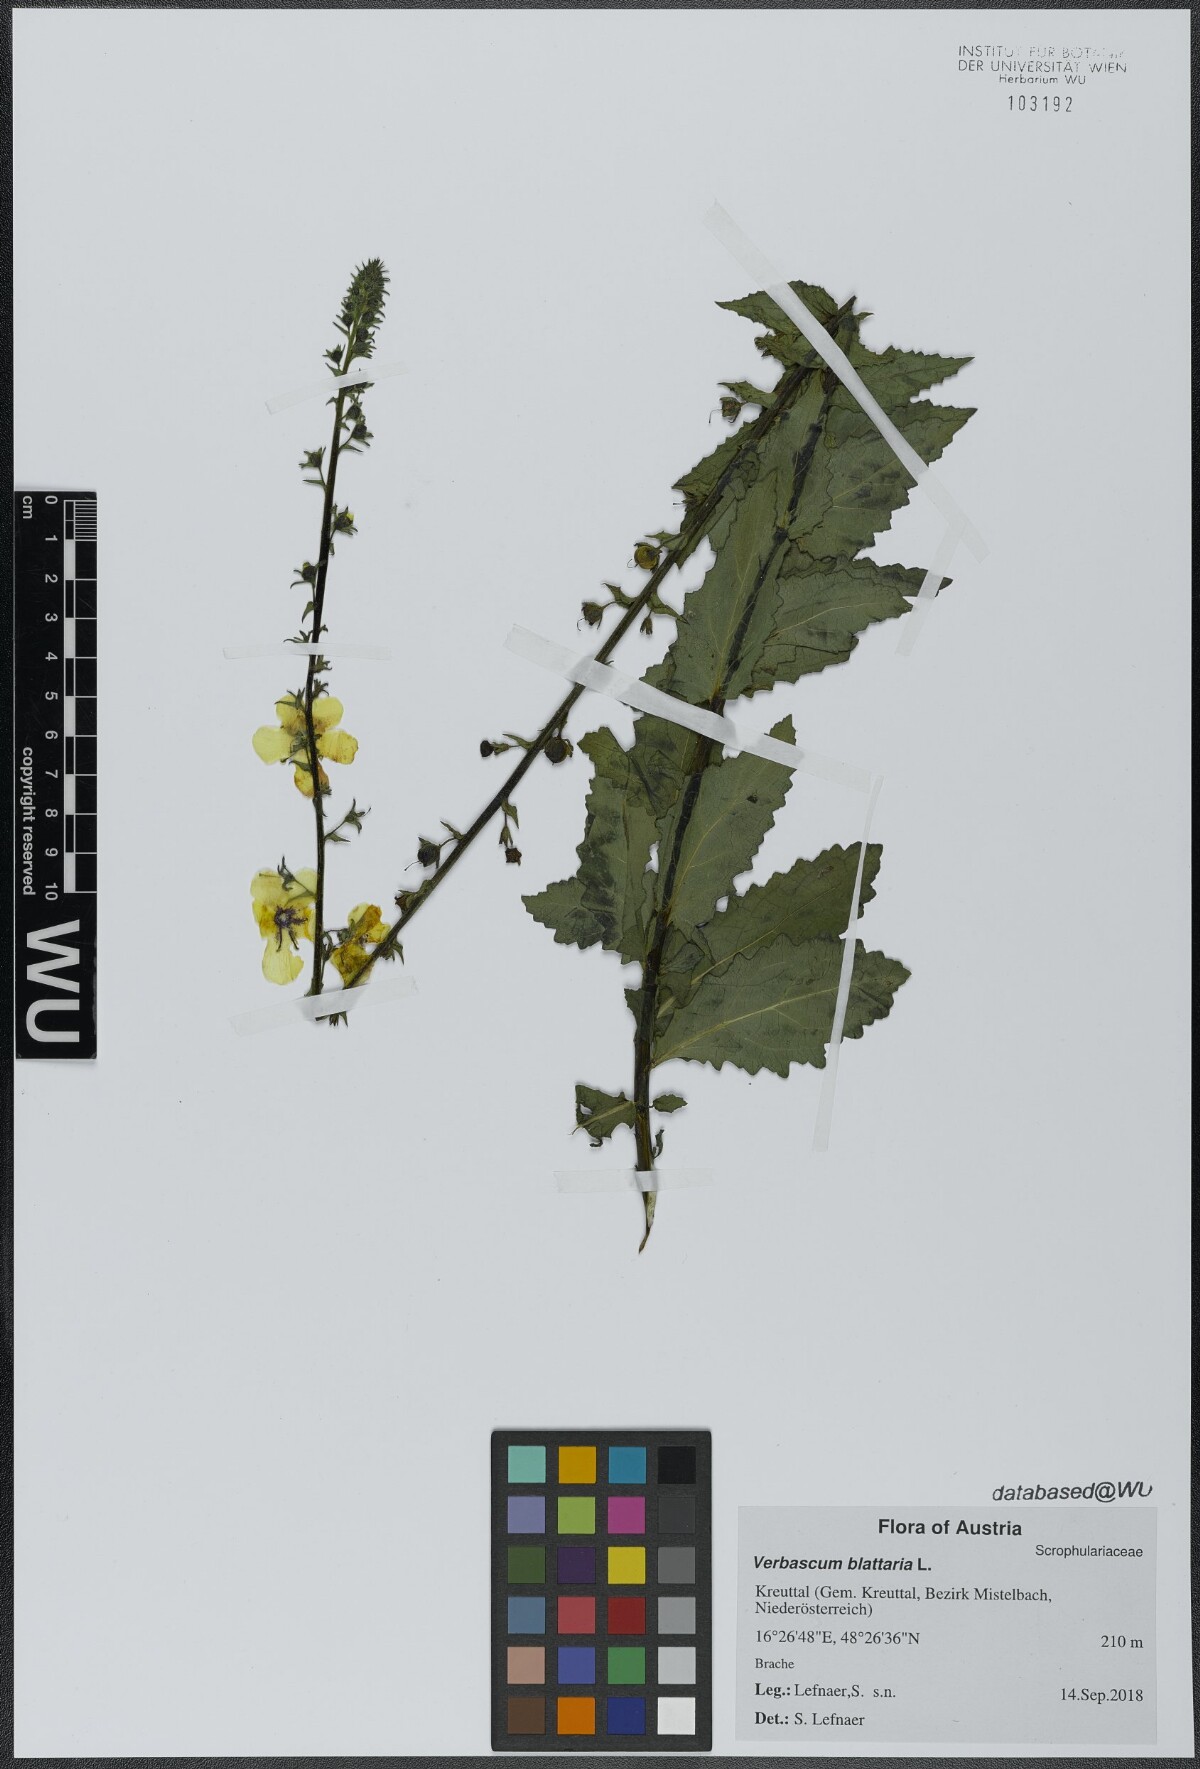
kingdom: Plantae
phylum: Tracheophyta
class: Magnoliopsida
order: Lamiales
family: Scrophulariaceae
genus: Verbascum
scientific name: Verbascum blattaria
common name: Moth mullein
